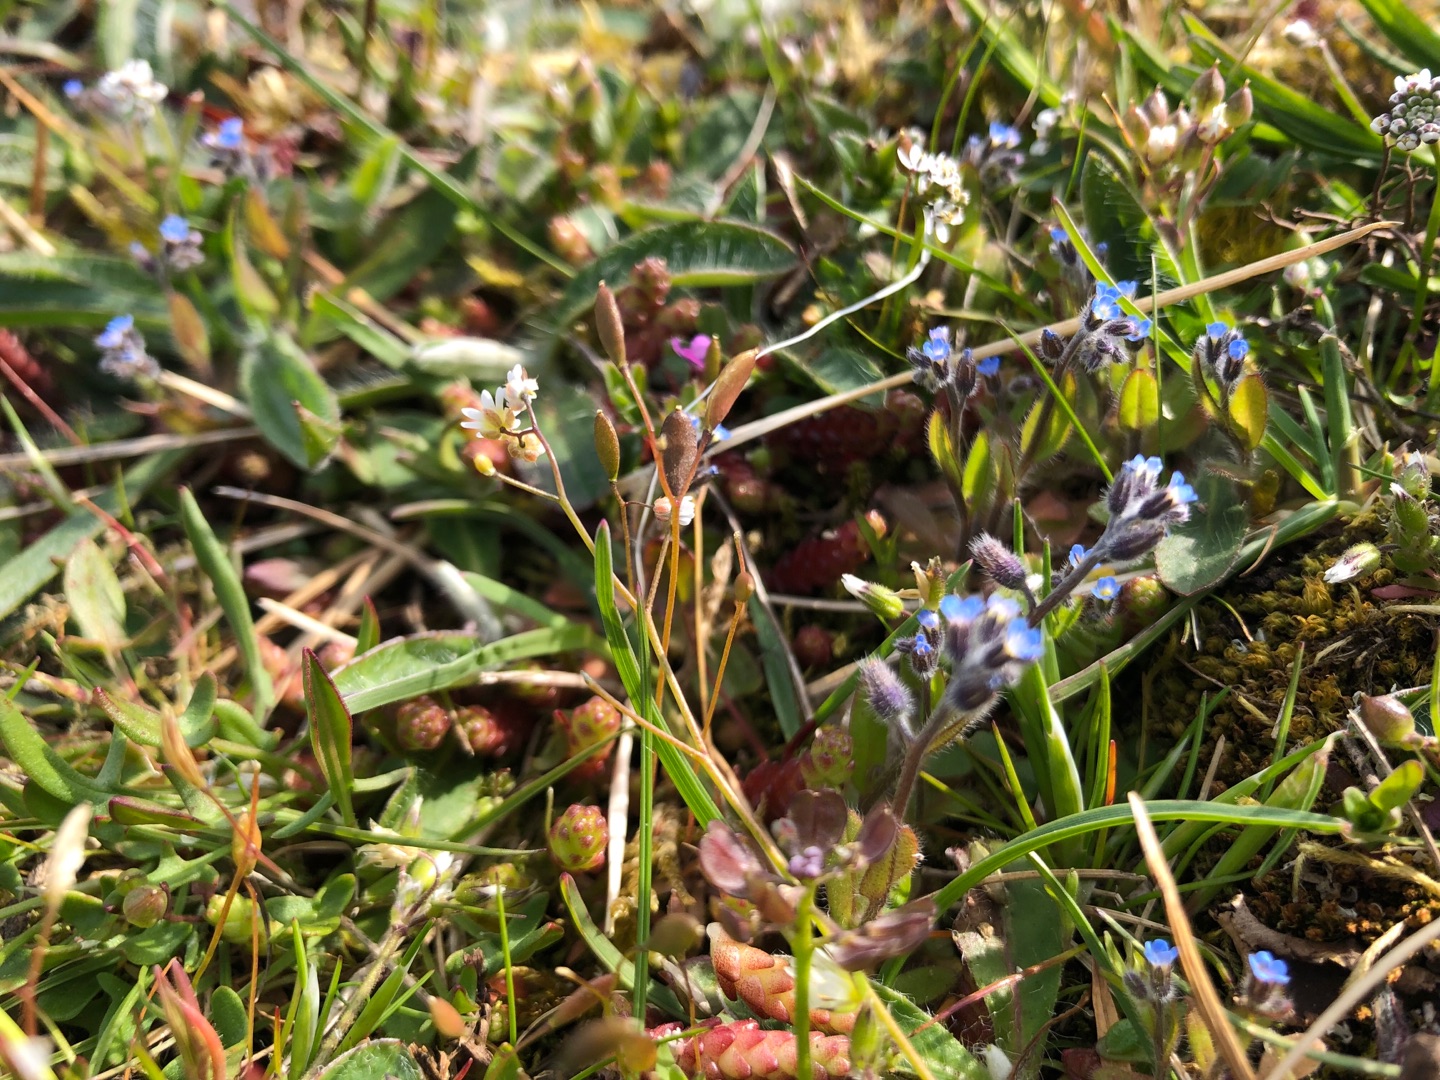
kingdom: Plantae
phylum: Tracheophyta
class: Magnoliopsida
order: Boraginales
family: Boraginaceae
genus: Myosotis
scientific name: Myosotis ramosissima
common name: Bakke-forglemmigej
